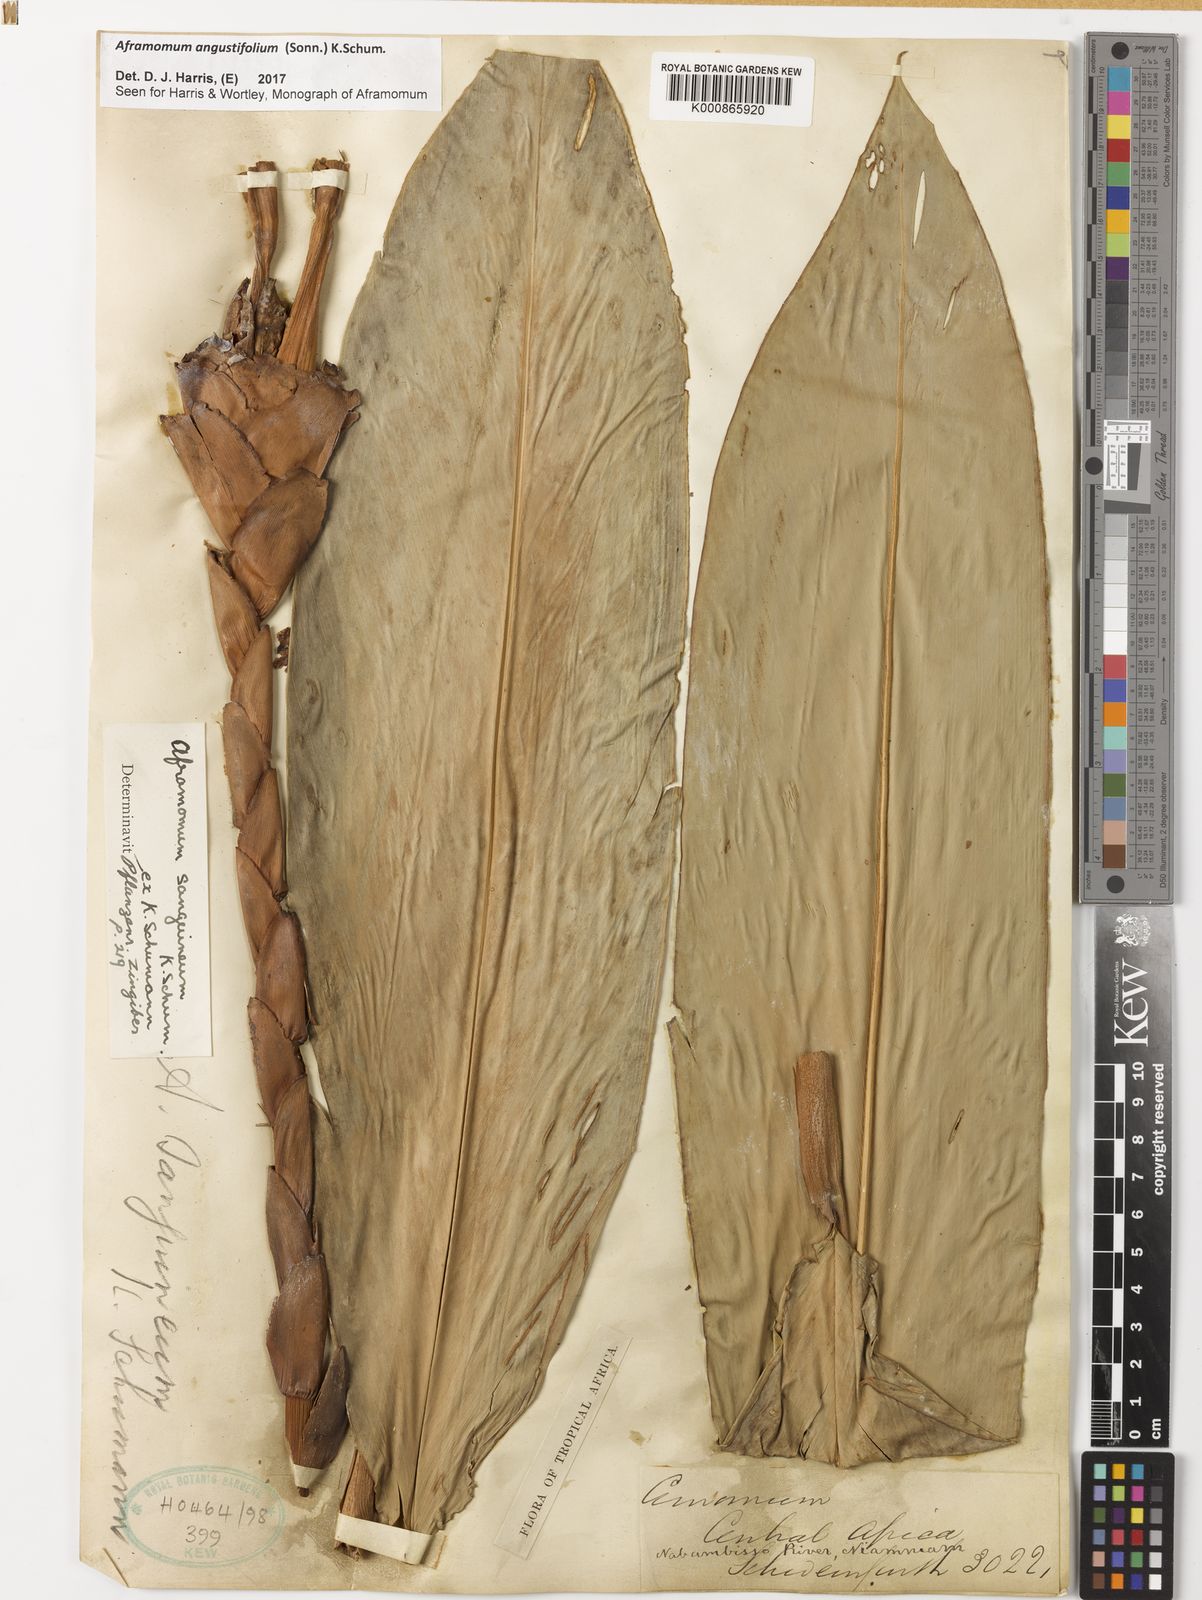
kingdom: Plantae
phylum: Tracheophyta
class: Liliopsida
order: Zingiberales
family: Zingiberaceae
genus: Aframomum
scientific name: Aframomum angustifolium
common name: Guinea grains
